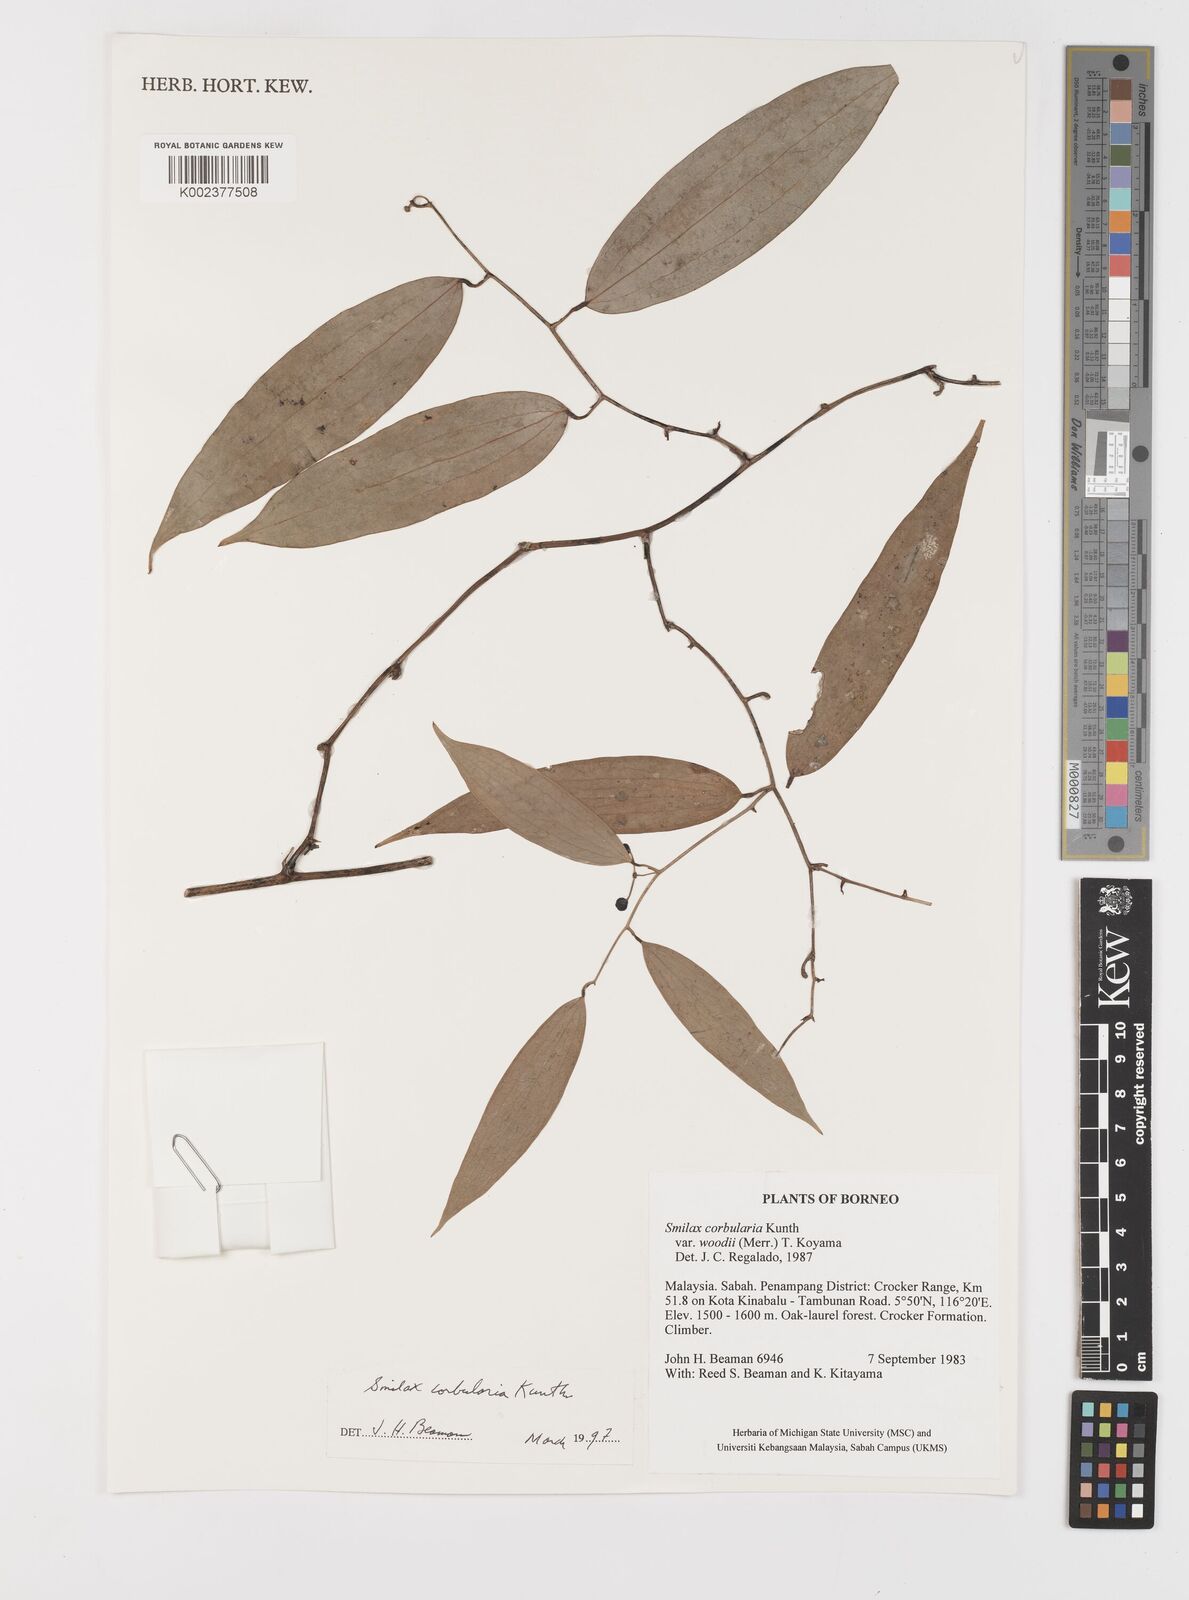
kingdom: Plantae
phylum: Tracheophyta
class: Liliopsida
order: Liliales
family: Smilacaceae
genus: Smilax
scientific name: Smilax corbularia
